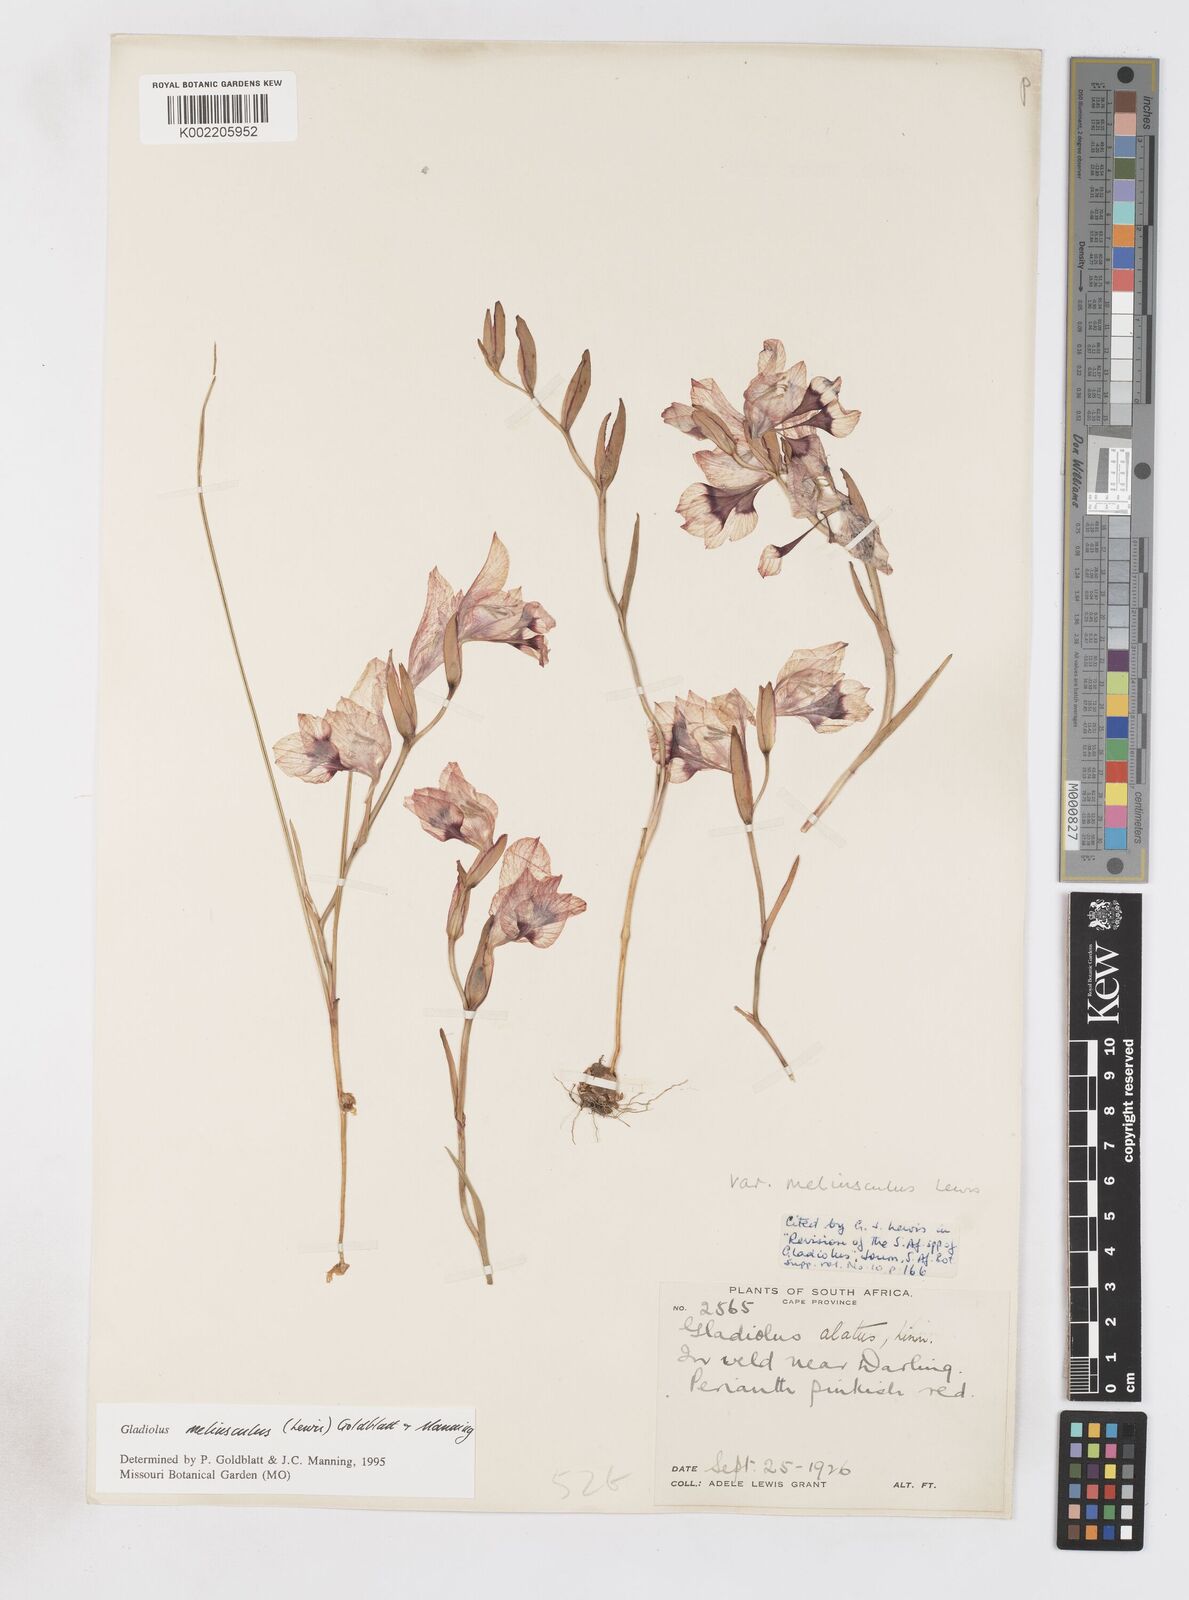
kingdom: Plantae
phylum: Tracheophyta
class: Liliopsida
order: Asparagales
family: Iridaceae
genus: Gladiolus
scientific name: Gladiolus meliusculus
